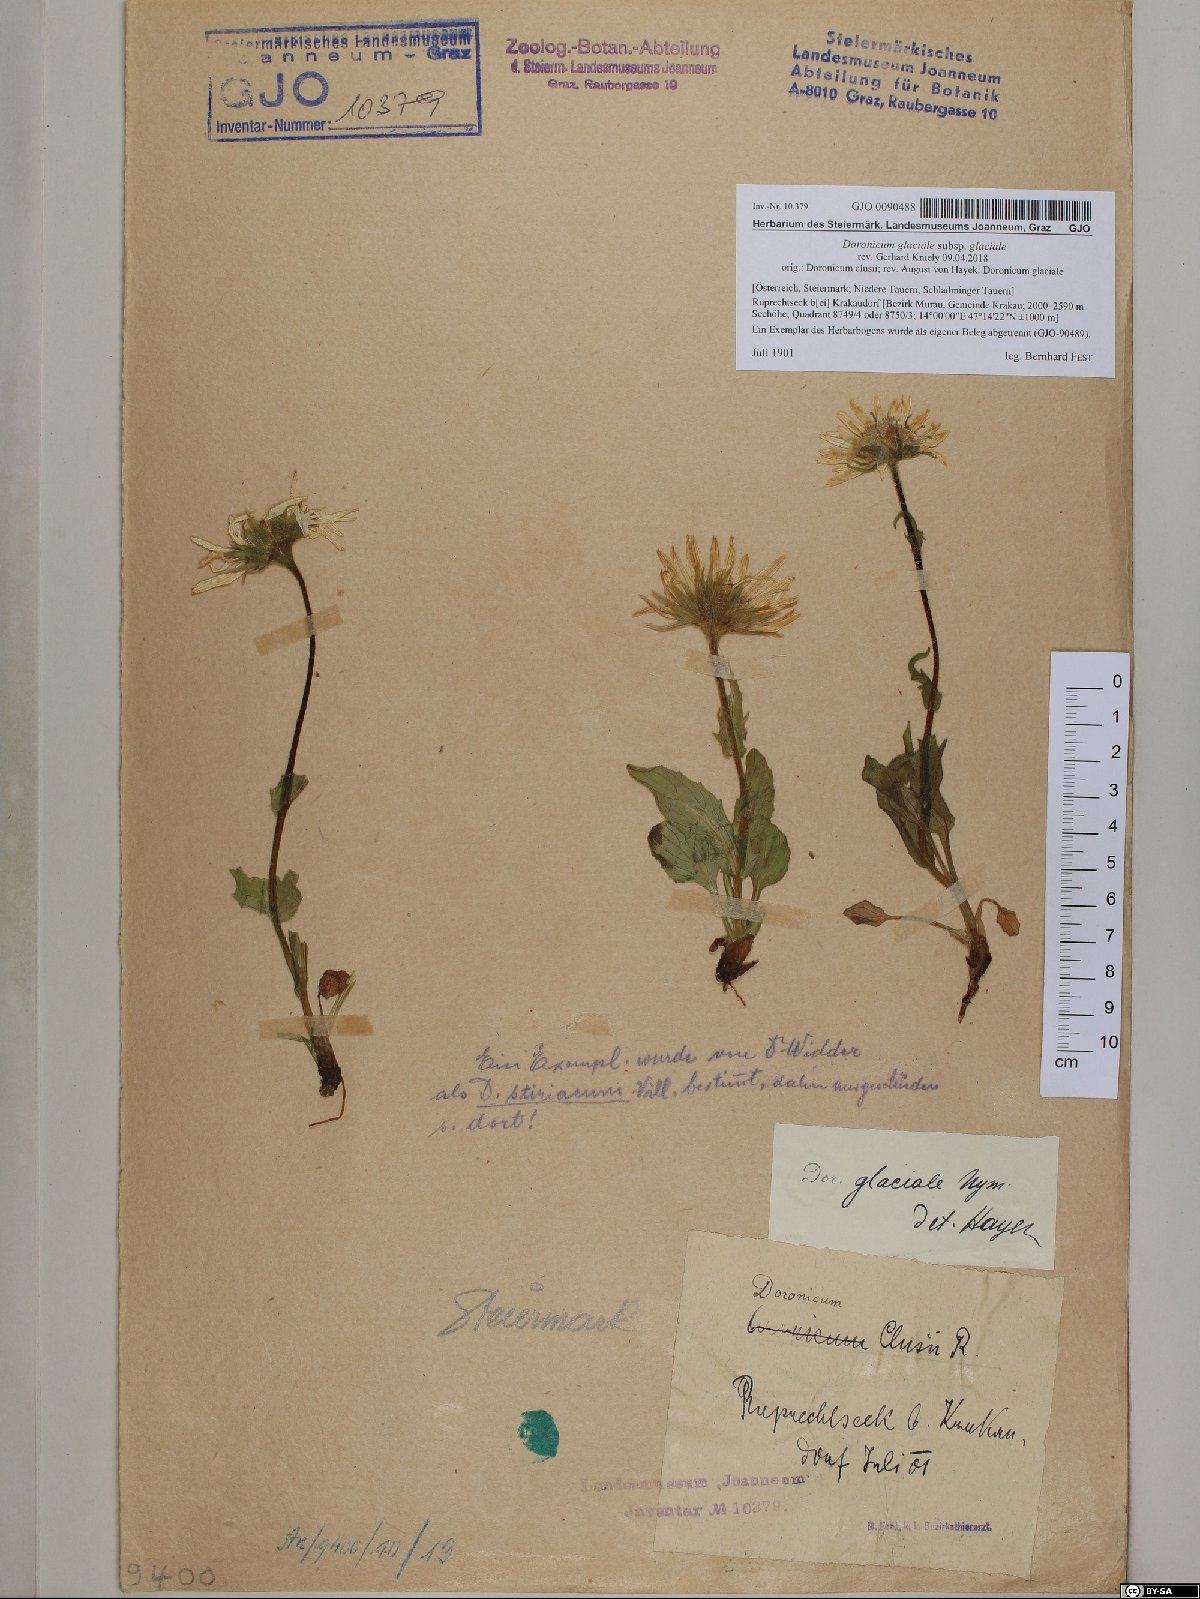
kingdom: Plantae
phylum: Tracheophyta
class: Magnoliopsida
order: Asterales
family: Asteraceae
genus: Doronicum
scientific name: Doronicum glaciale
